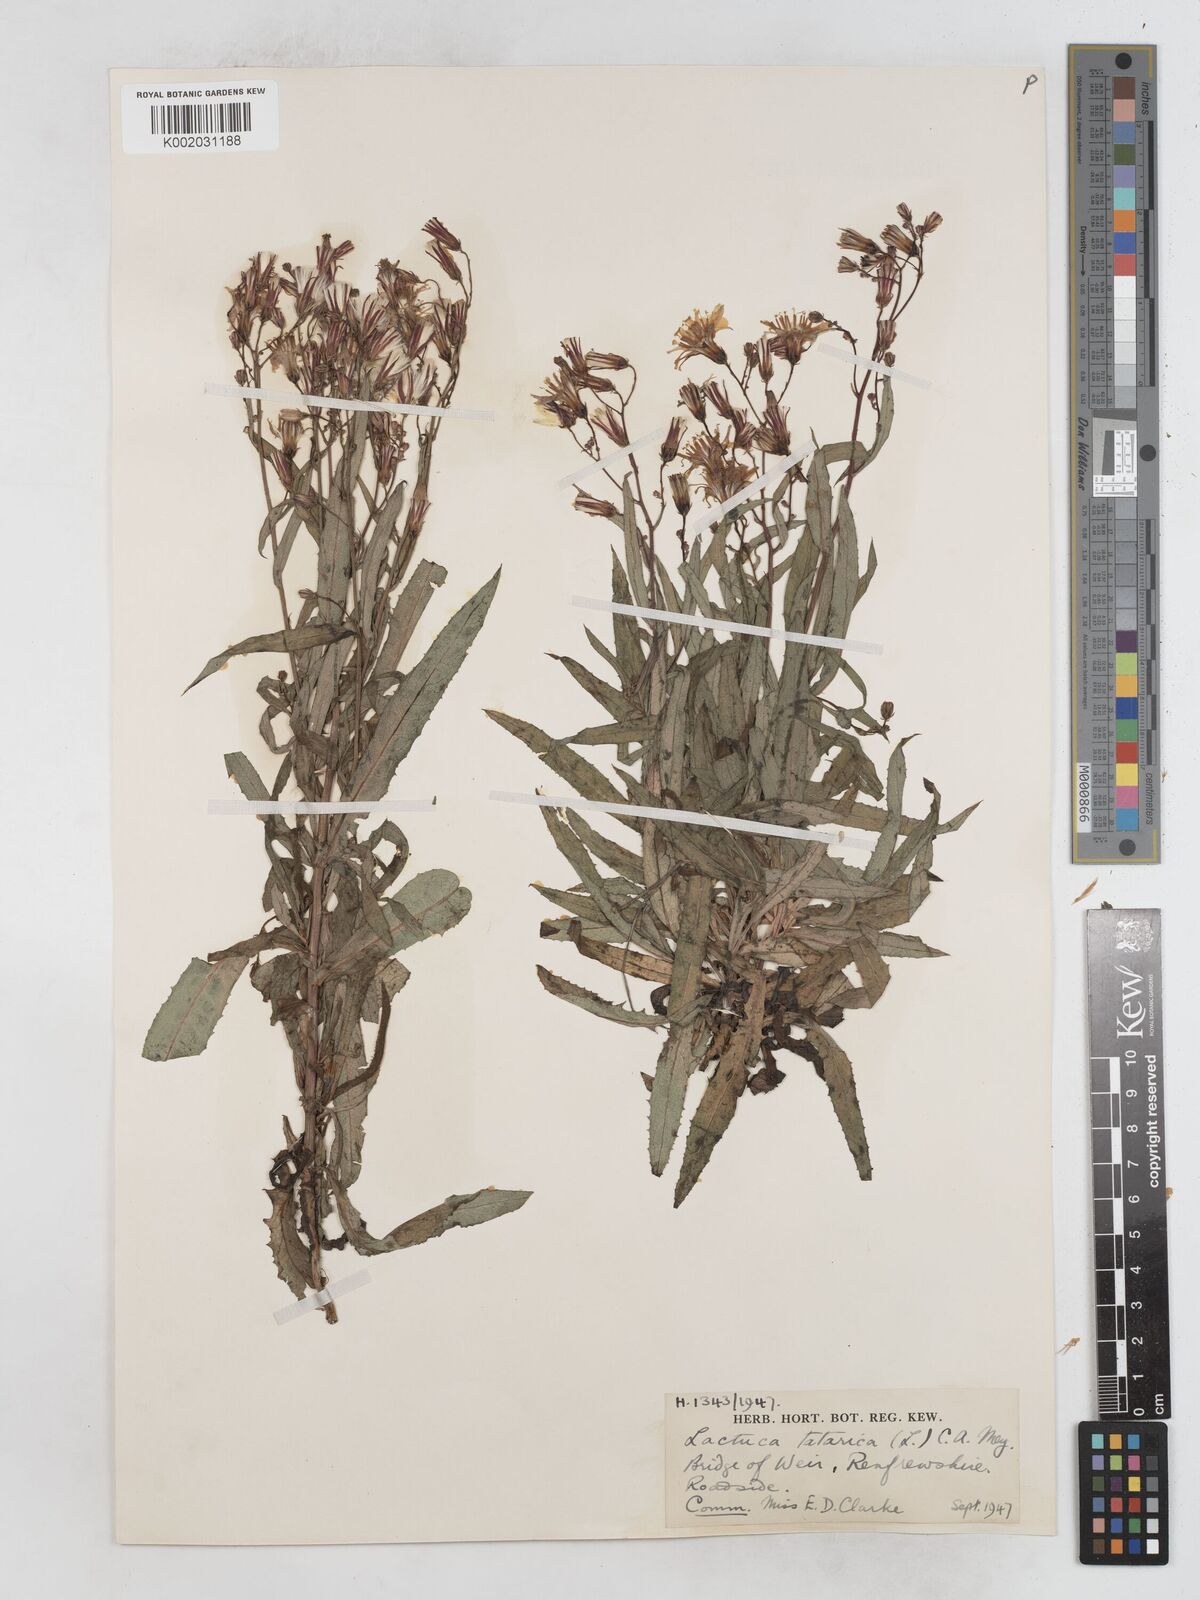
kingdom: Plantae
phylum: Tracheophyta
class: Magnoliopsida
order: Asterales
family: Asteraceae
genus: Lactuca
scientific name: Lactuca tatarica
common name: Blue lettuce
